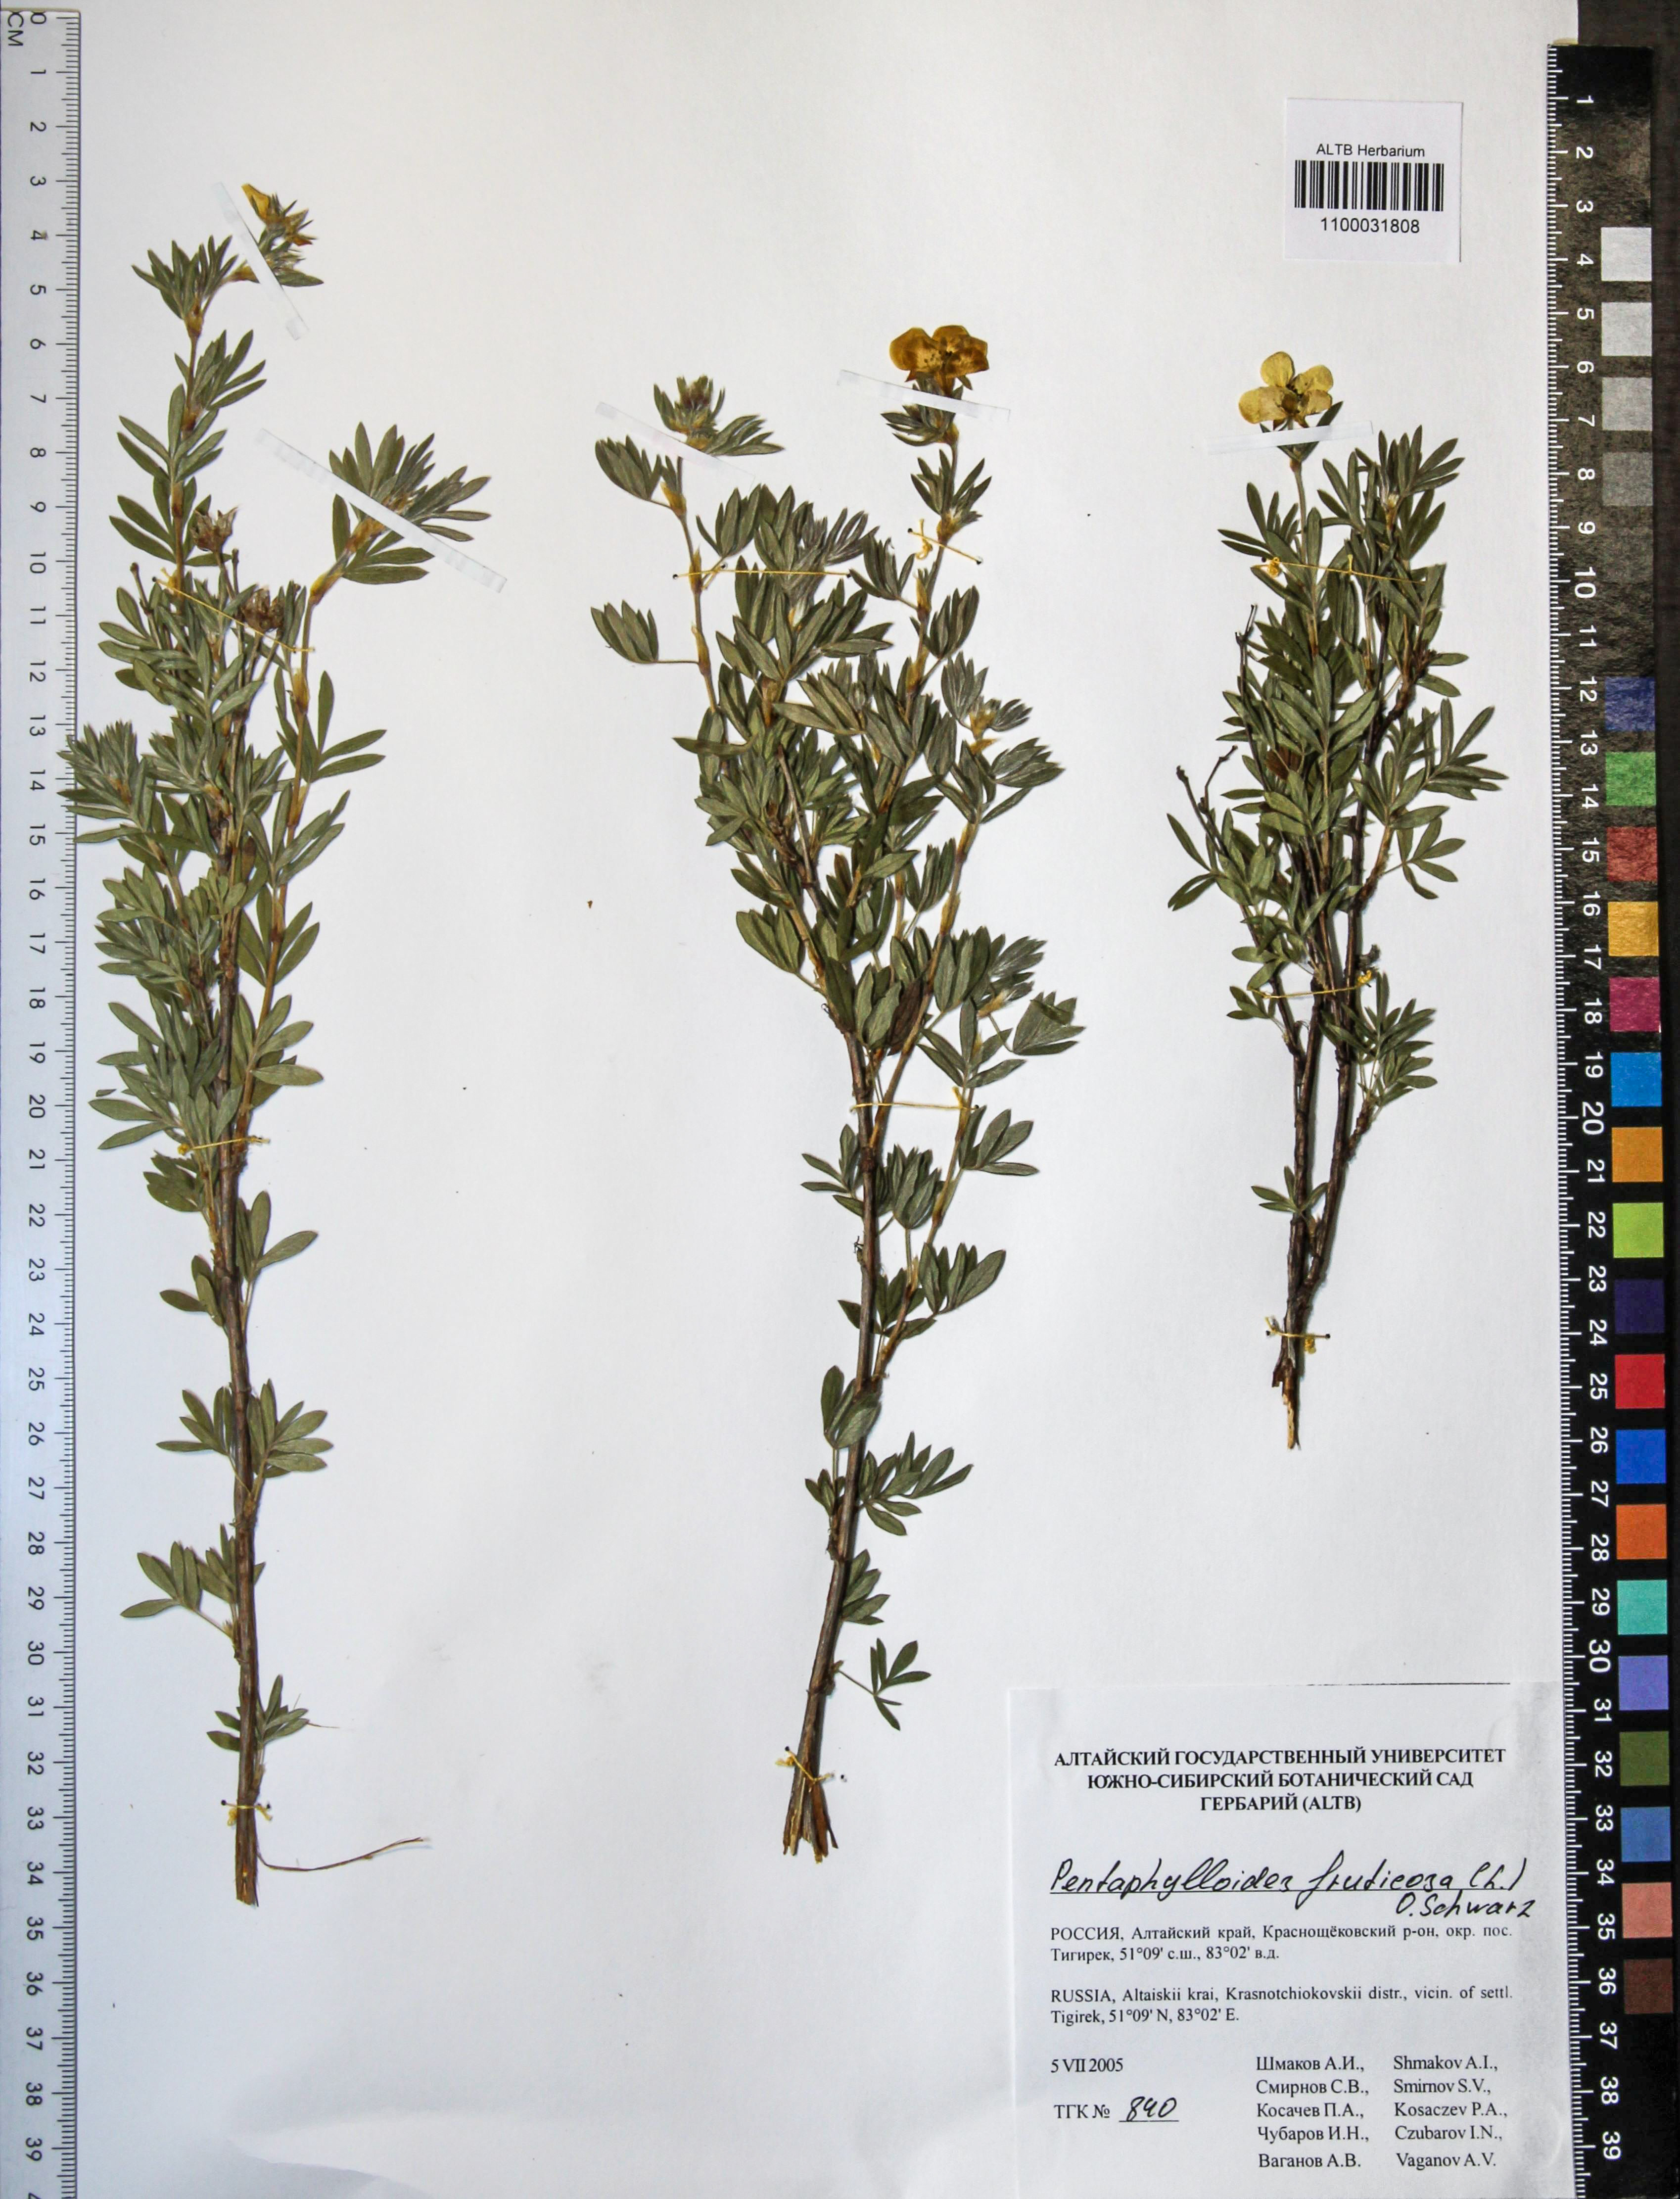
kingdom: Plantae
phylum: Tracheophyta
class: Magnoliopsida
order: Rosales
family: Rosaceae
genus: Dasiphora
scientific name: Dasiphora fruticosa
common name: Shrubby cinquefoil
